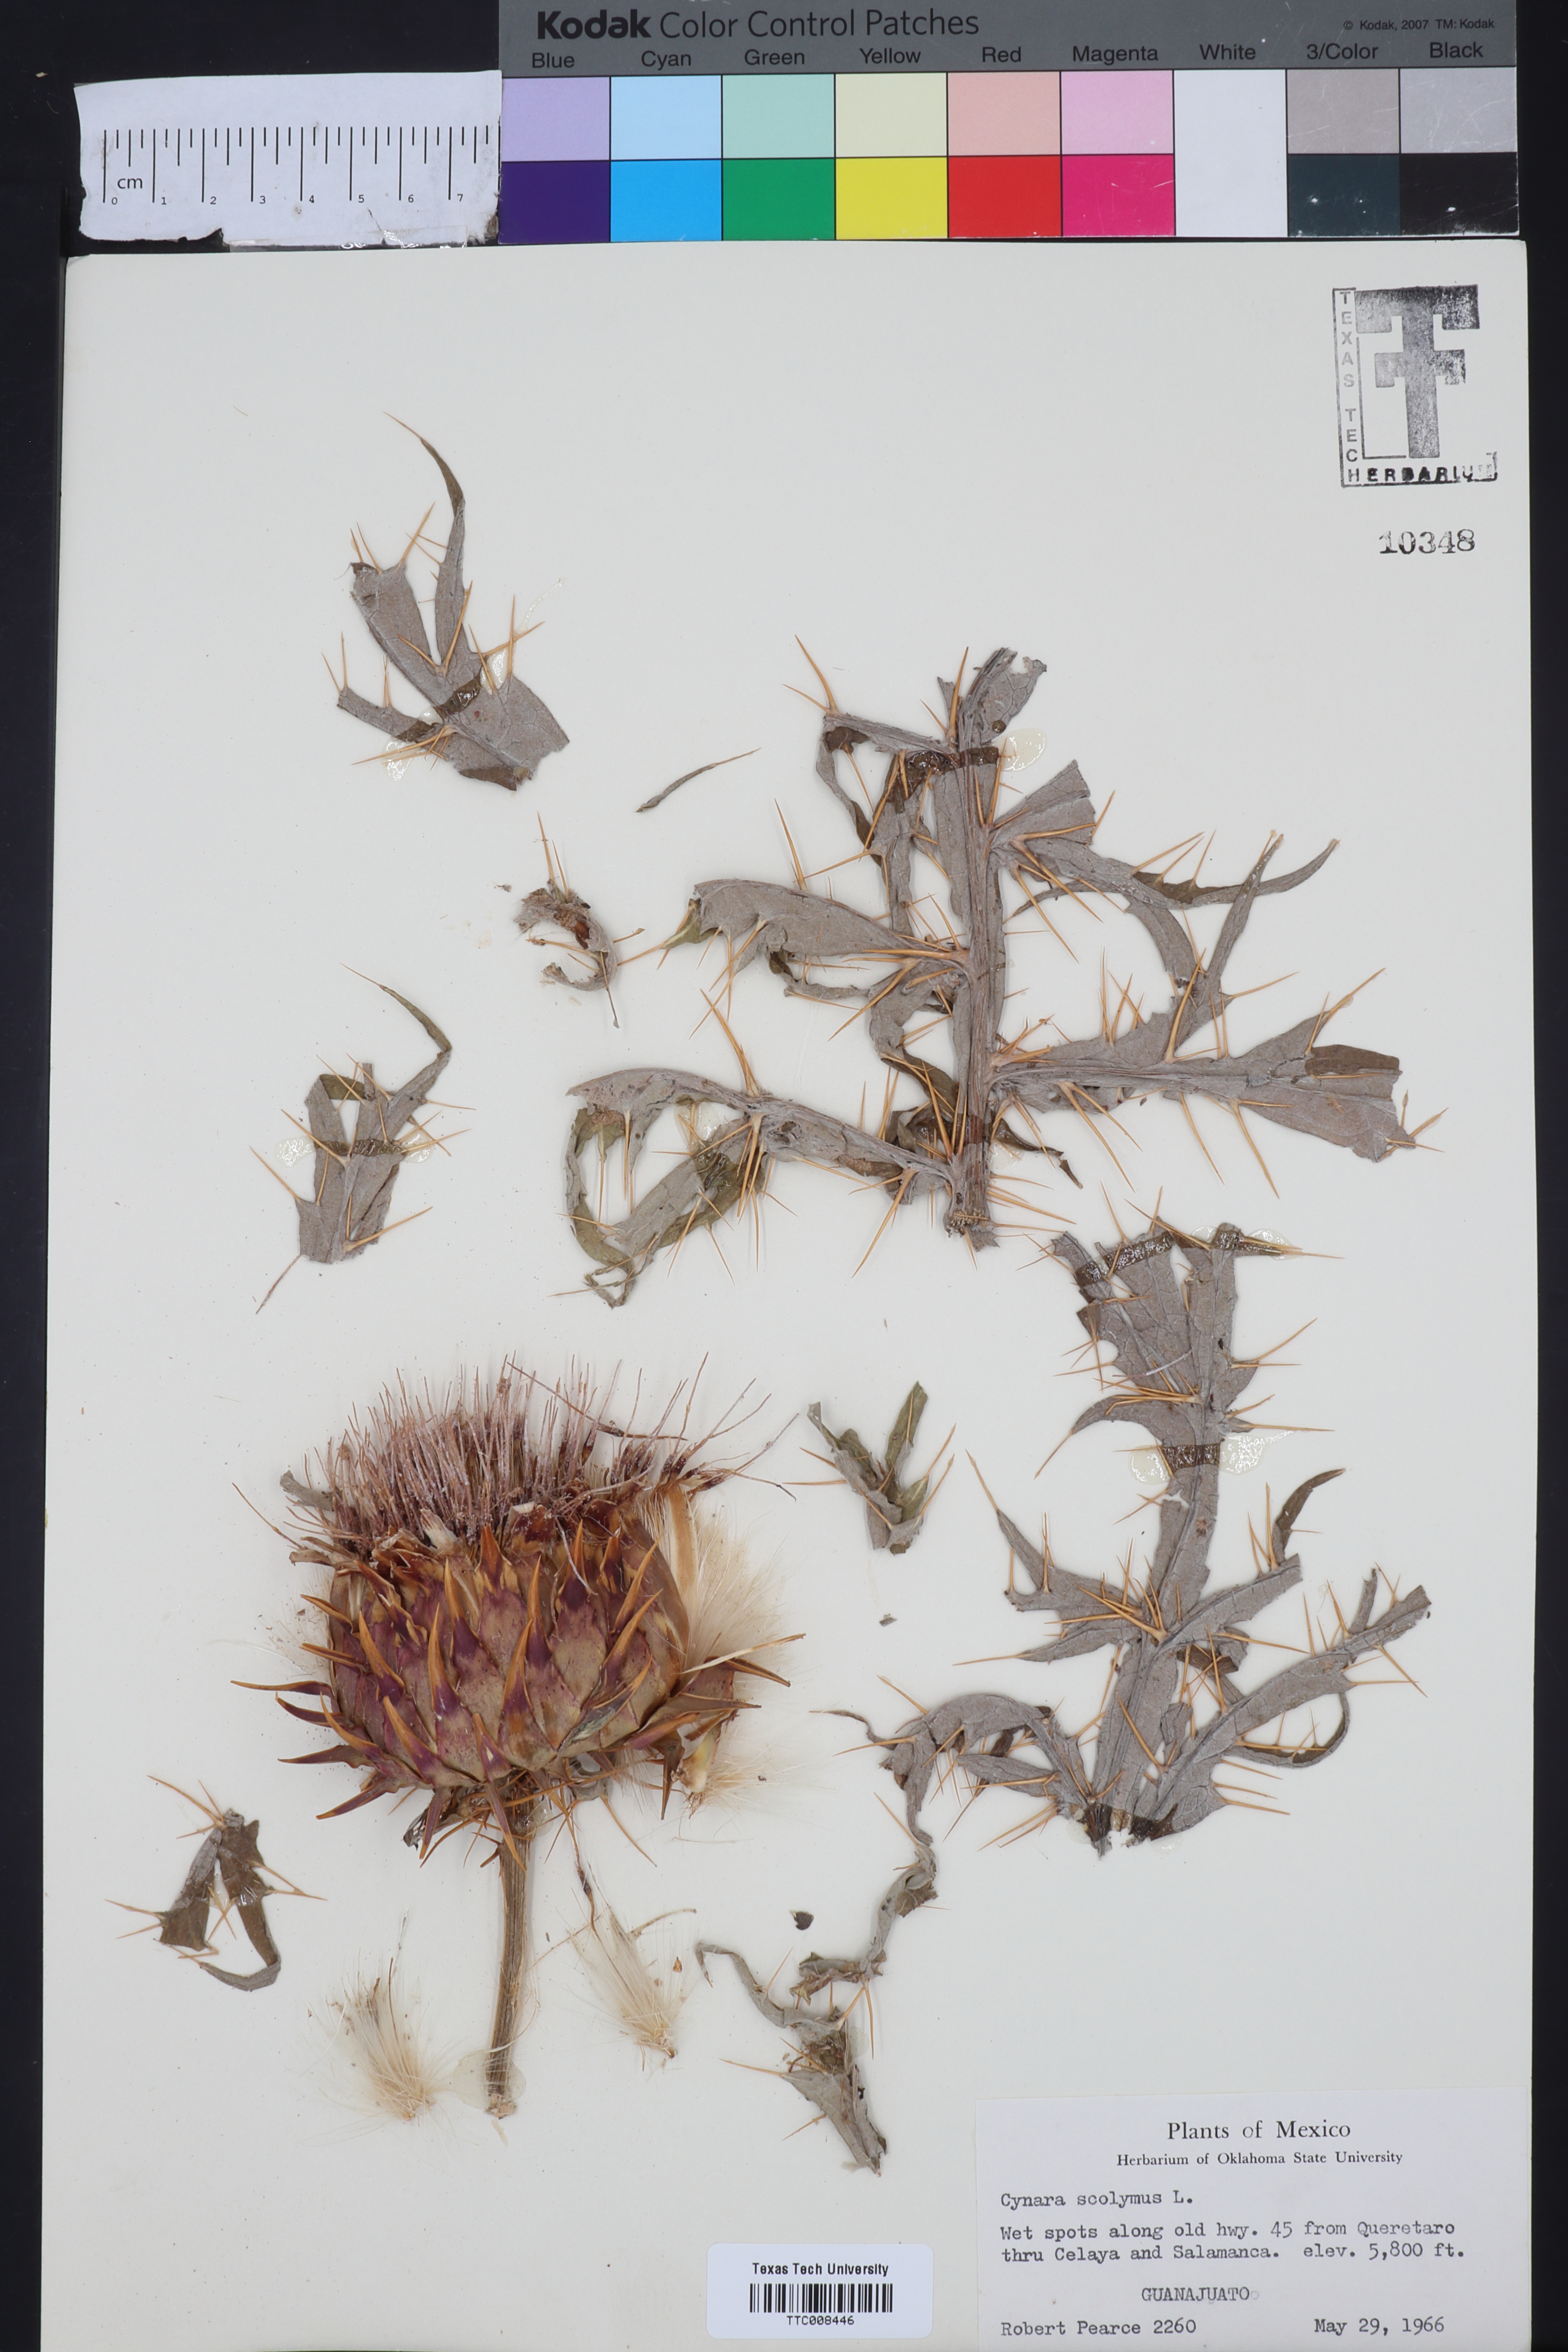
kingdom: Plantae
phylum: Tracheophyta
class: Magnoliopsida
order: Asterales
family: Asteraceae
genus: Cynara
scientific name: Cynara scolymus
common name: Globe artichoke
